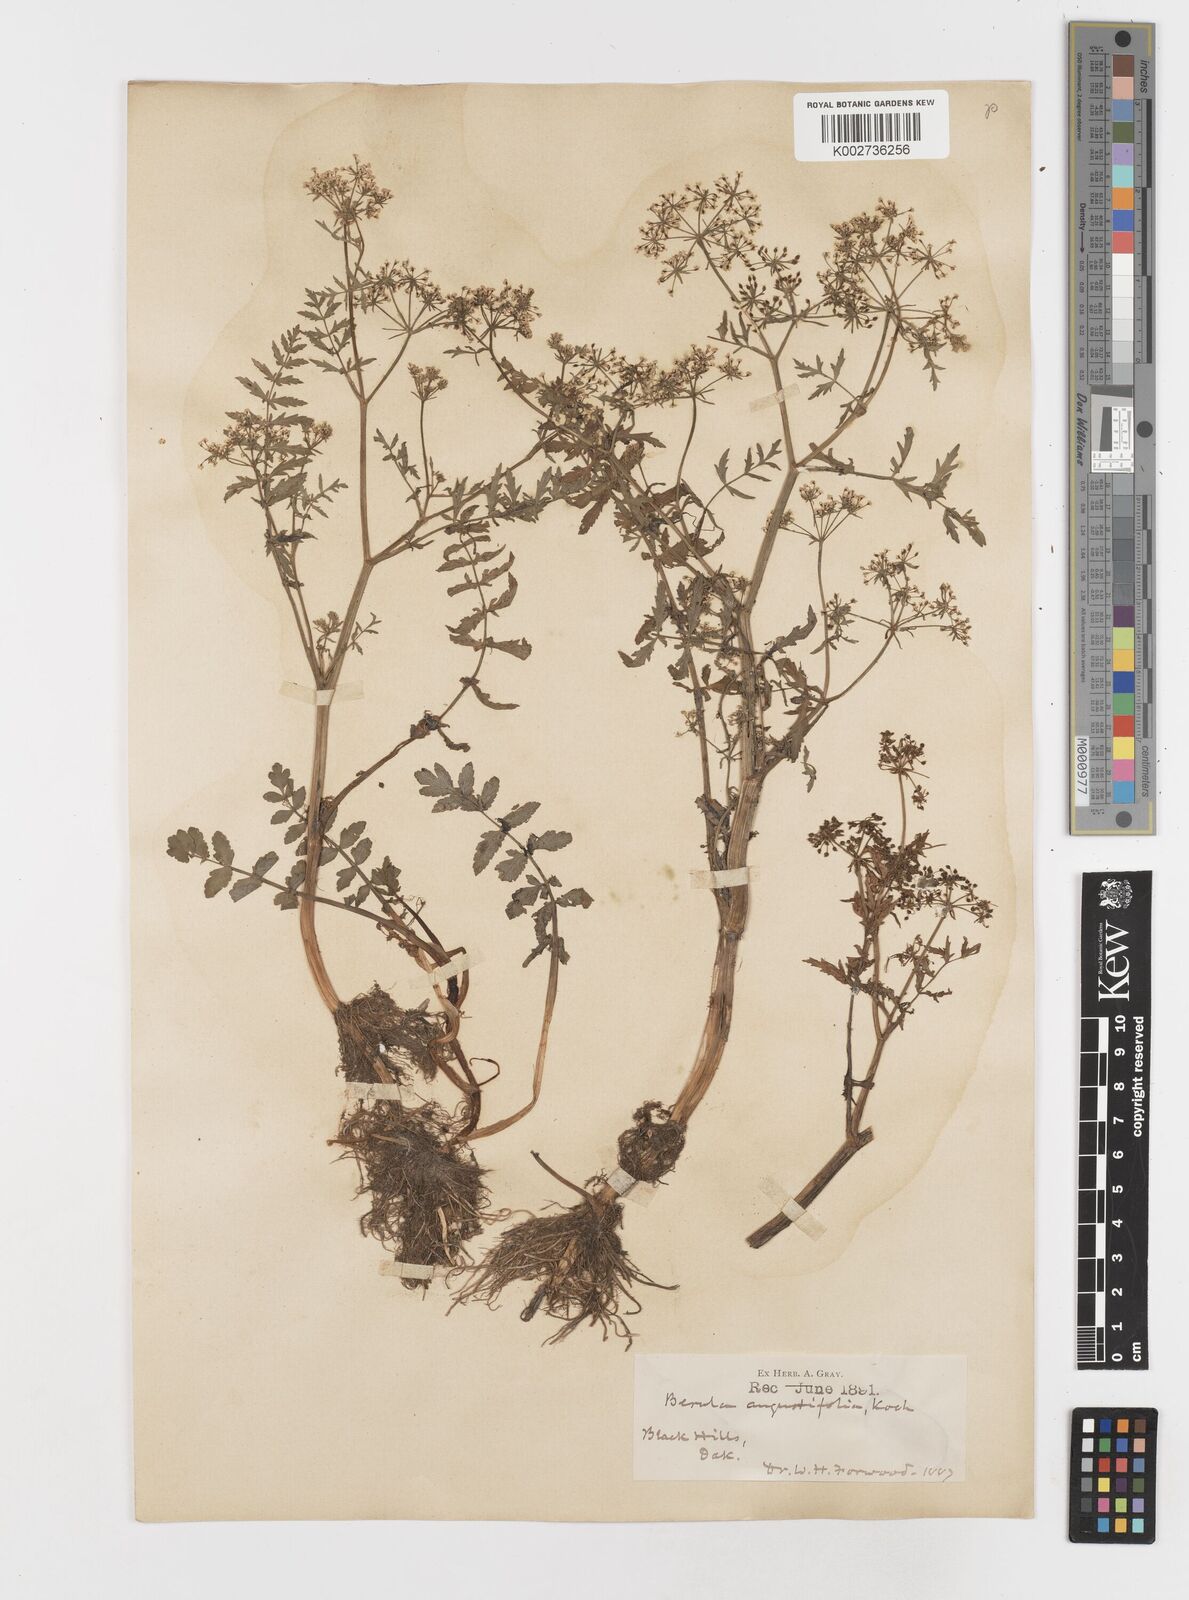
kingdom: Plantae
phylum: Tracheophyta
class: Magnoliopsida
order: Apiales
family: Apiaceae
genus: Berula
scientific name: Berula erecta
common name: Lesser water-parsnip
